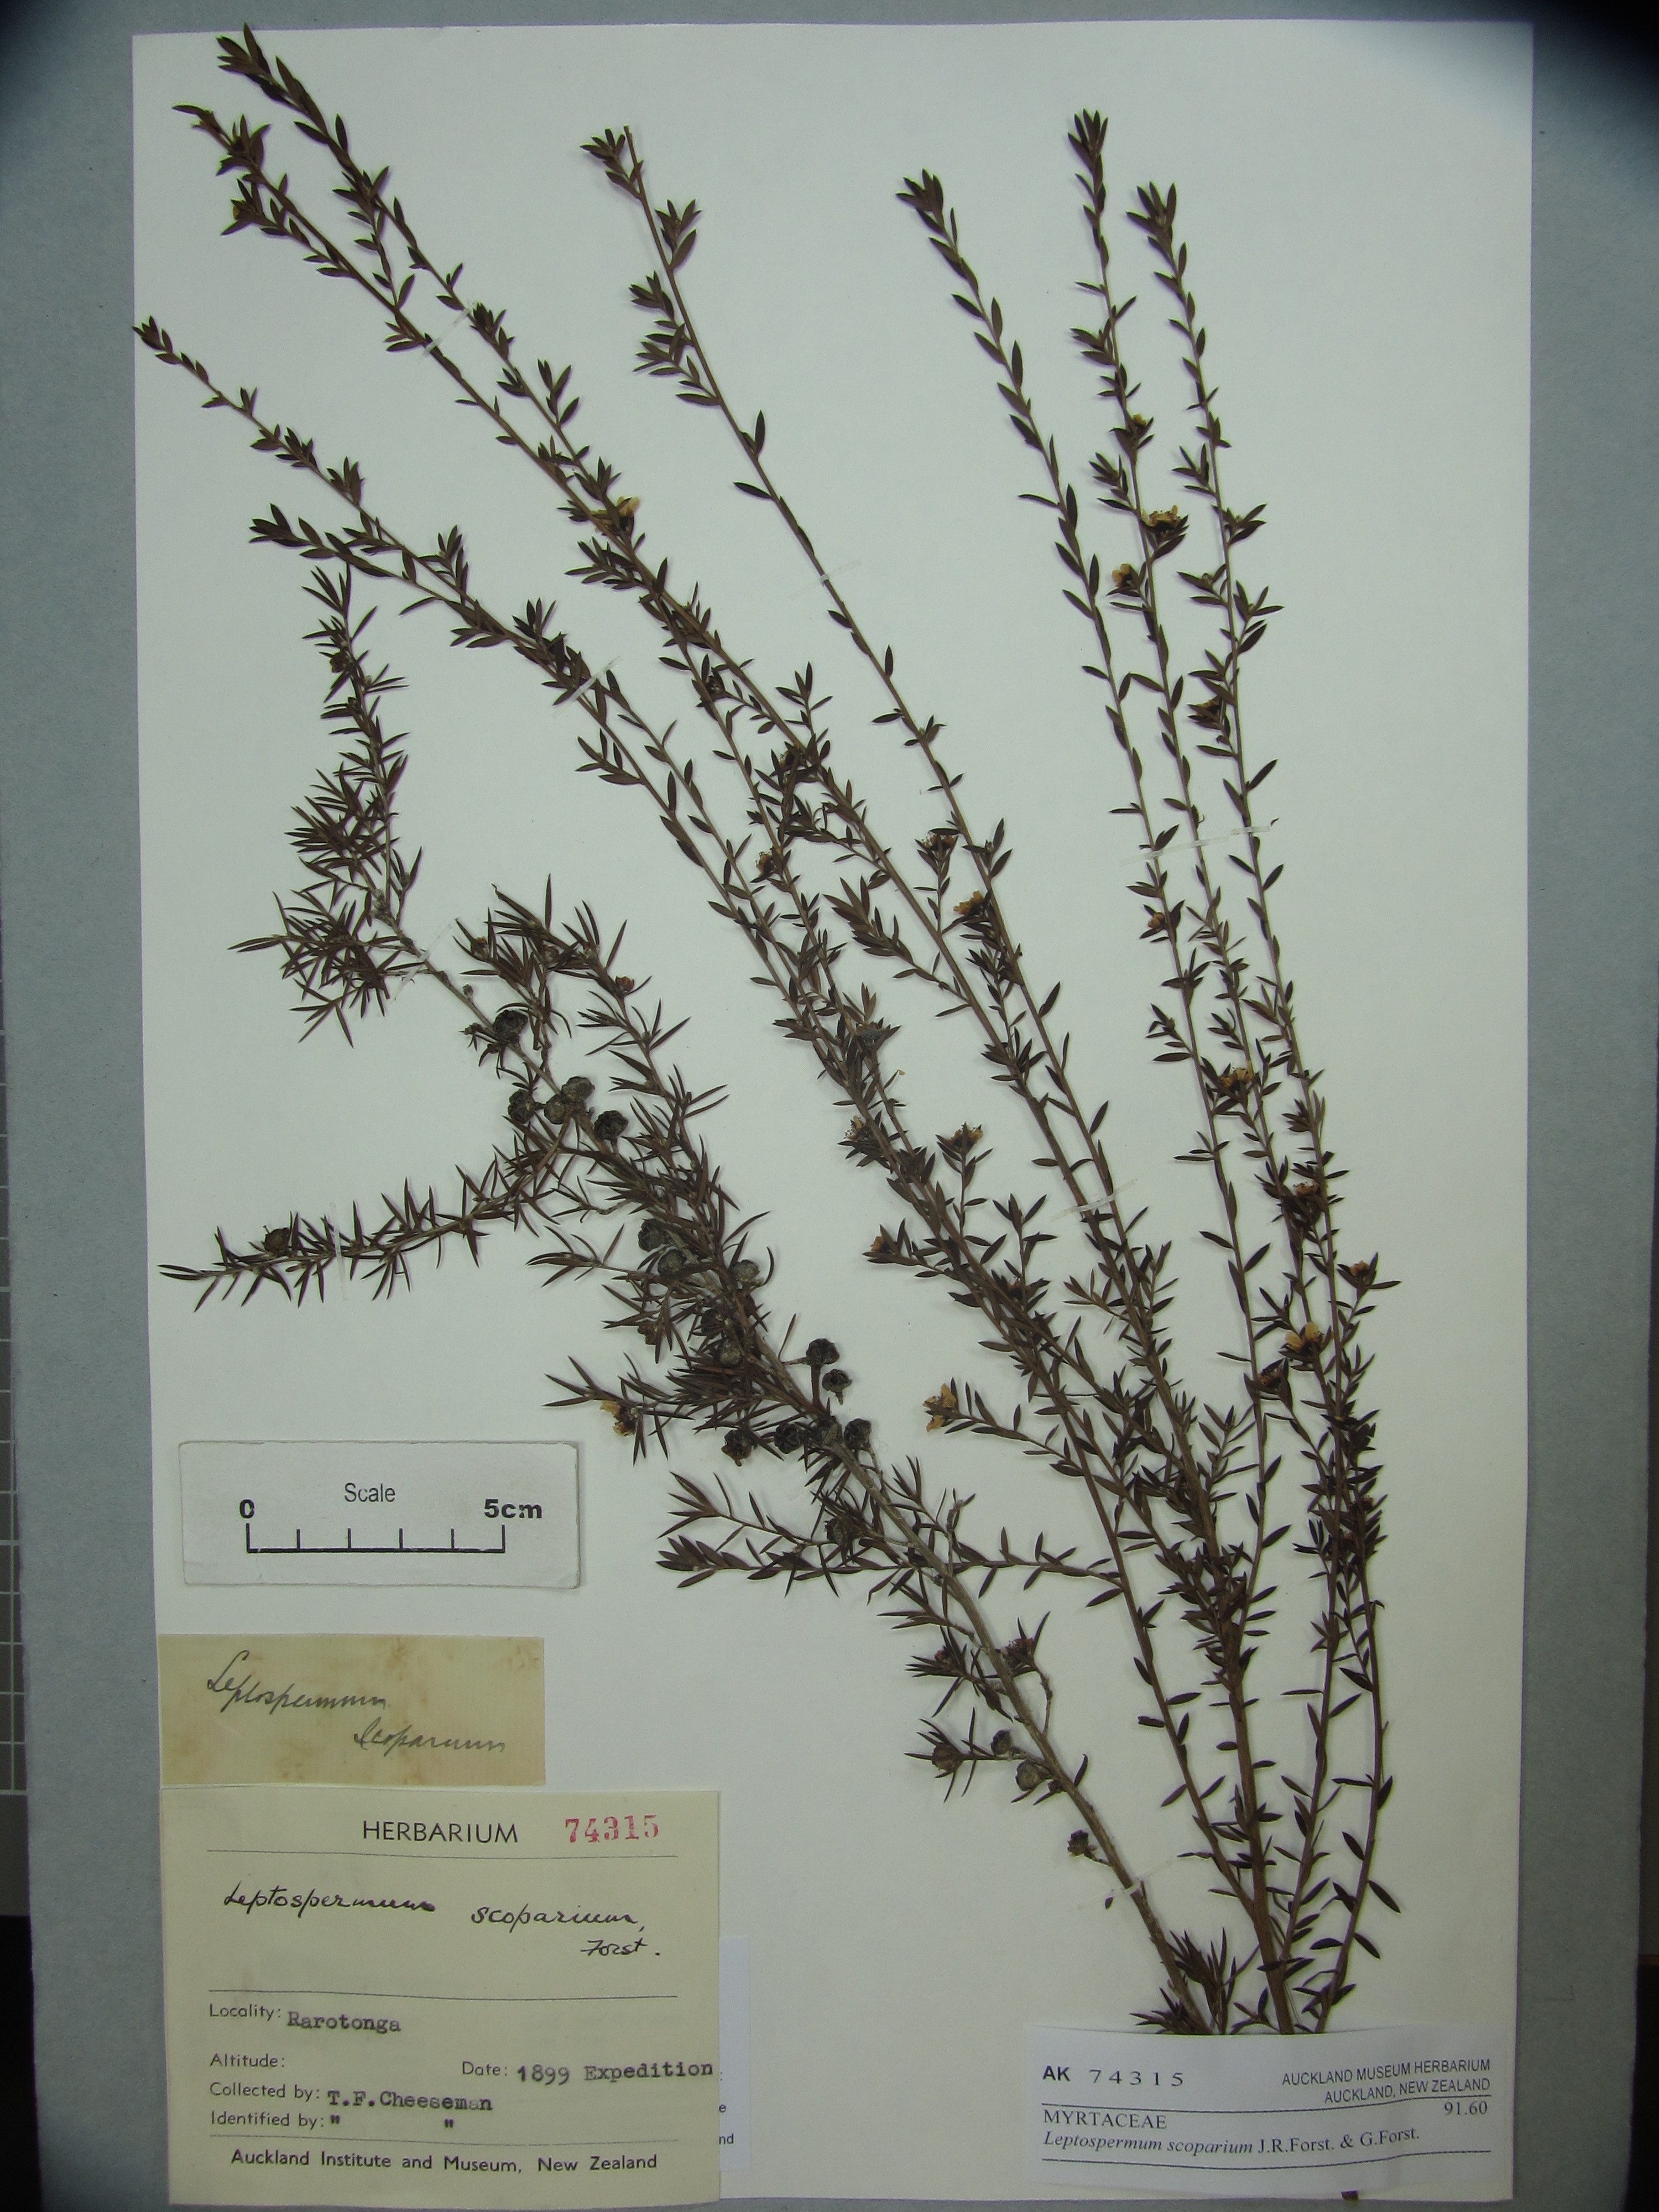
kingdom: Plantae
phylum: Tracheophyta
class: Magnoliopsida
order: Myrtales
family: Myrtaceae
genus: Leptospermum
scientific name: Leptospermum scoparium
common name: Broom tea-tree
